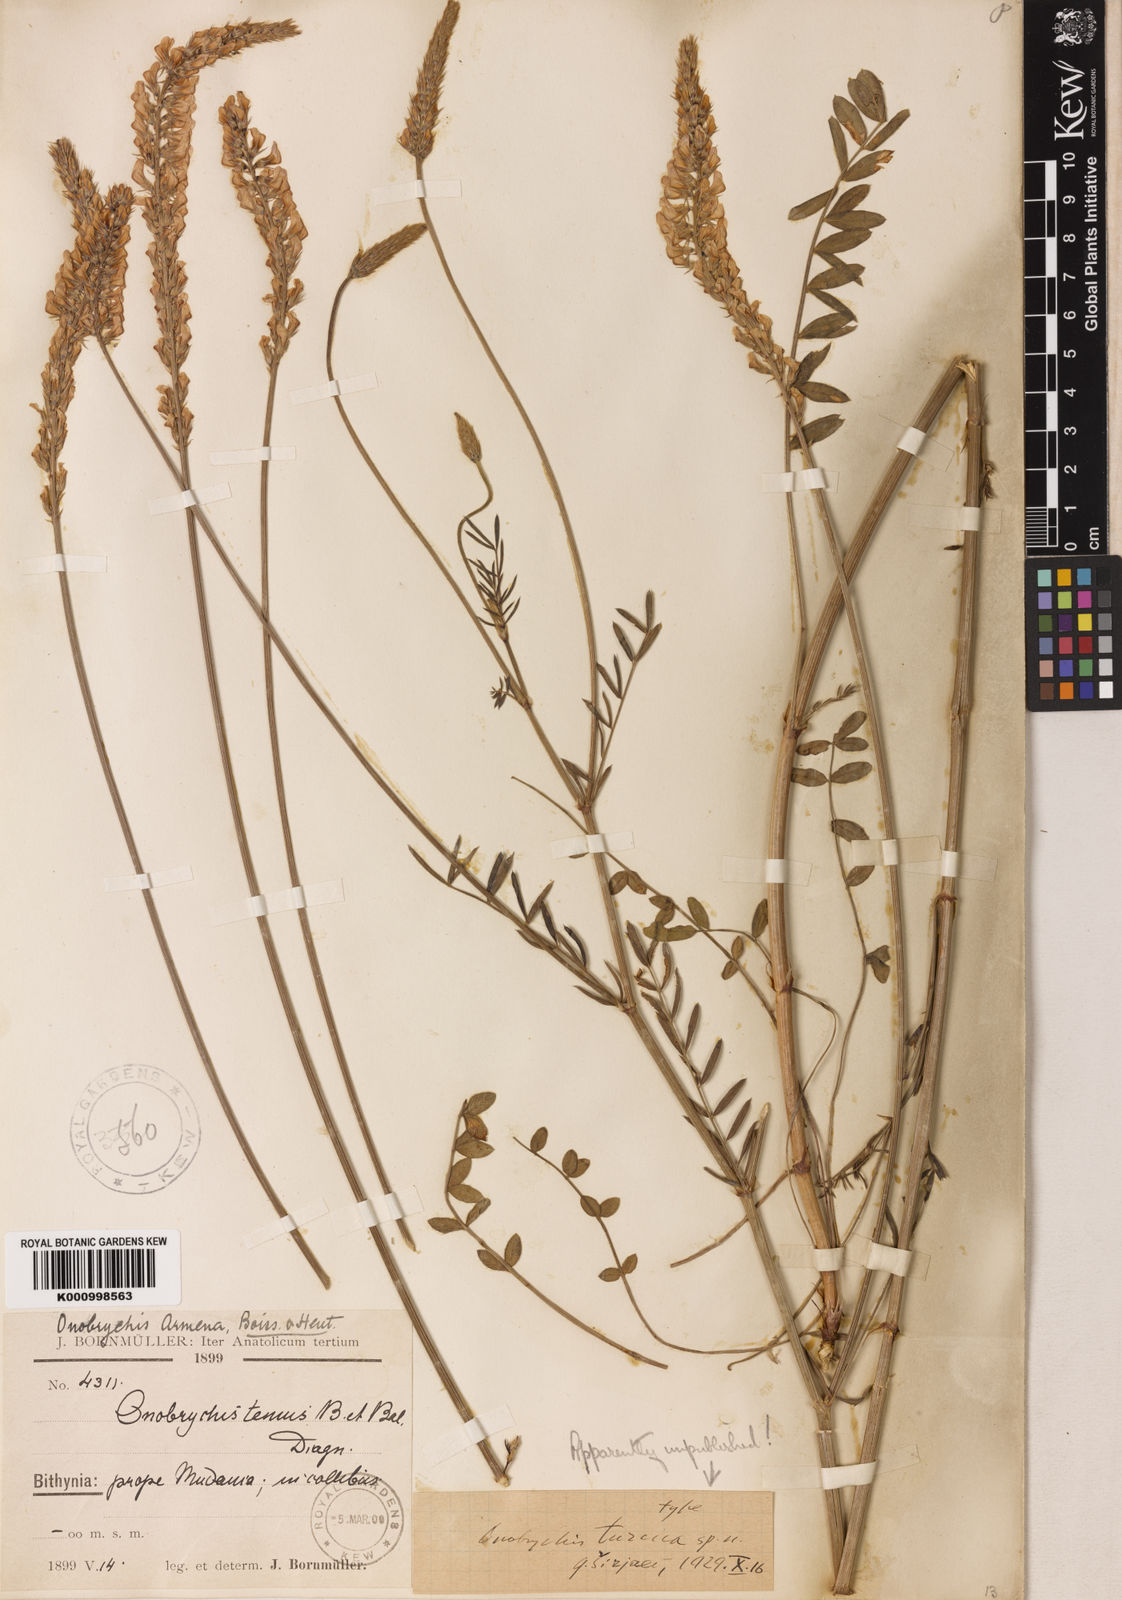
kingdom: Plantae
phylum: Tracheophyta
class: Magnoliopsida
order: Fabales
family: Fabaceae
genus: Onobrychis
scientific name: Onobrychis
